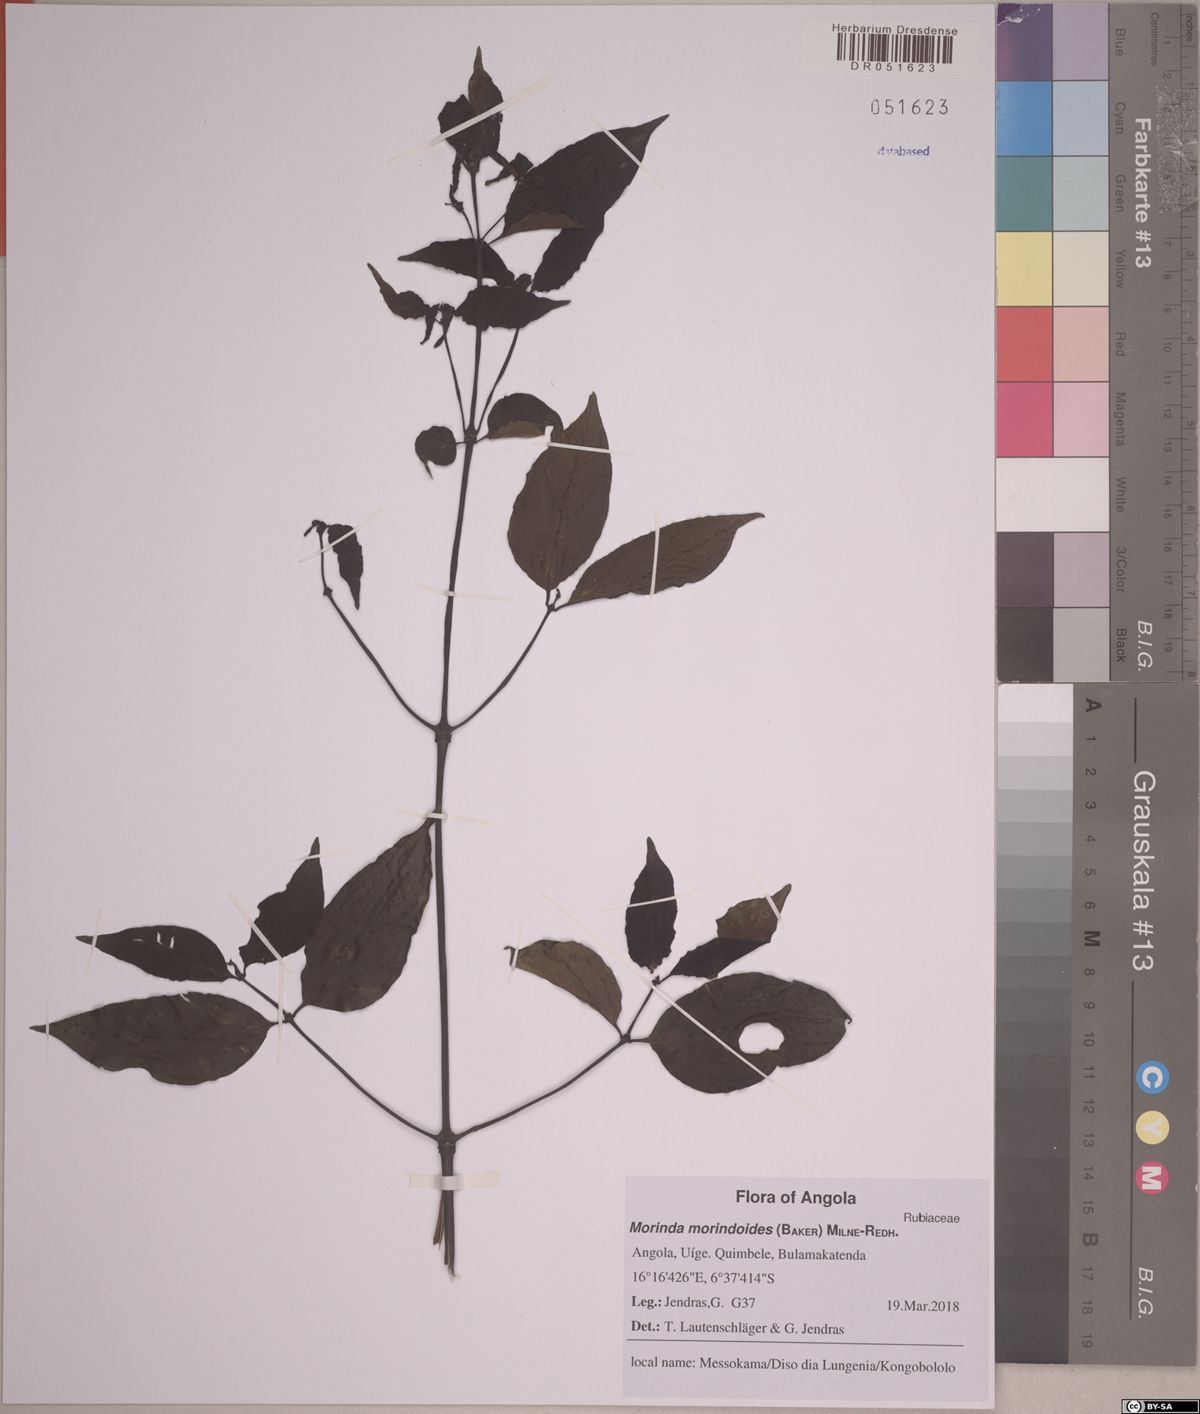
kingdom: Plantae
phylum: Tracheophyta
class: Magnoliopsida
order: Gentianales
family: Rubiaceae
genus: Morinda
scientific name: Morinda morindoides
